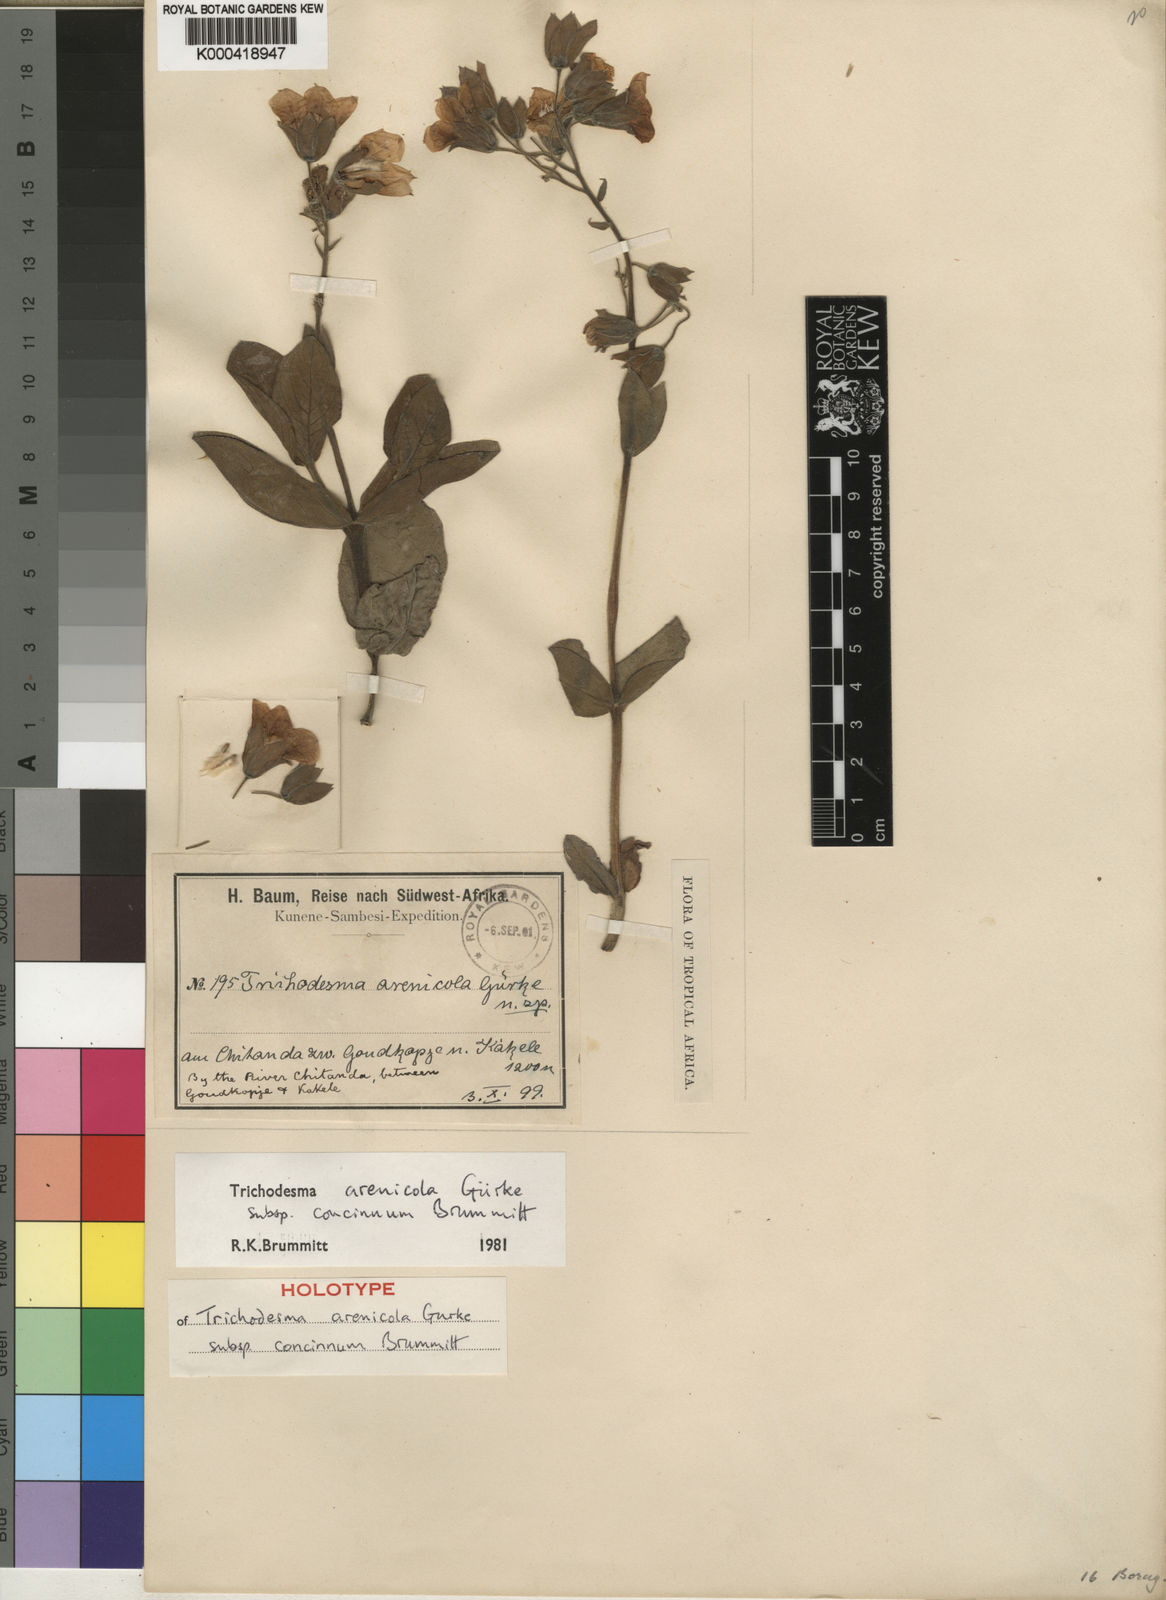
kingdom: Plantae
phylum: Tracheophyta
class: Magnoliopsida
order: Boraginales
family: Boraginaceae
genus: Trichodesma
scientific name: Trichodesma
